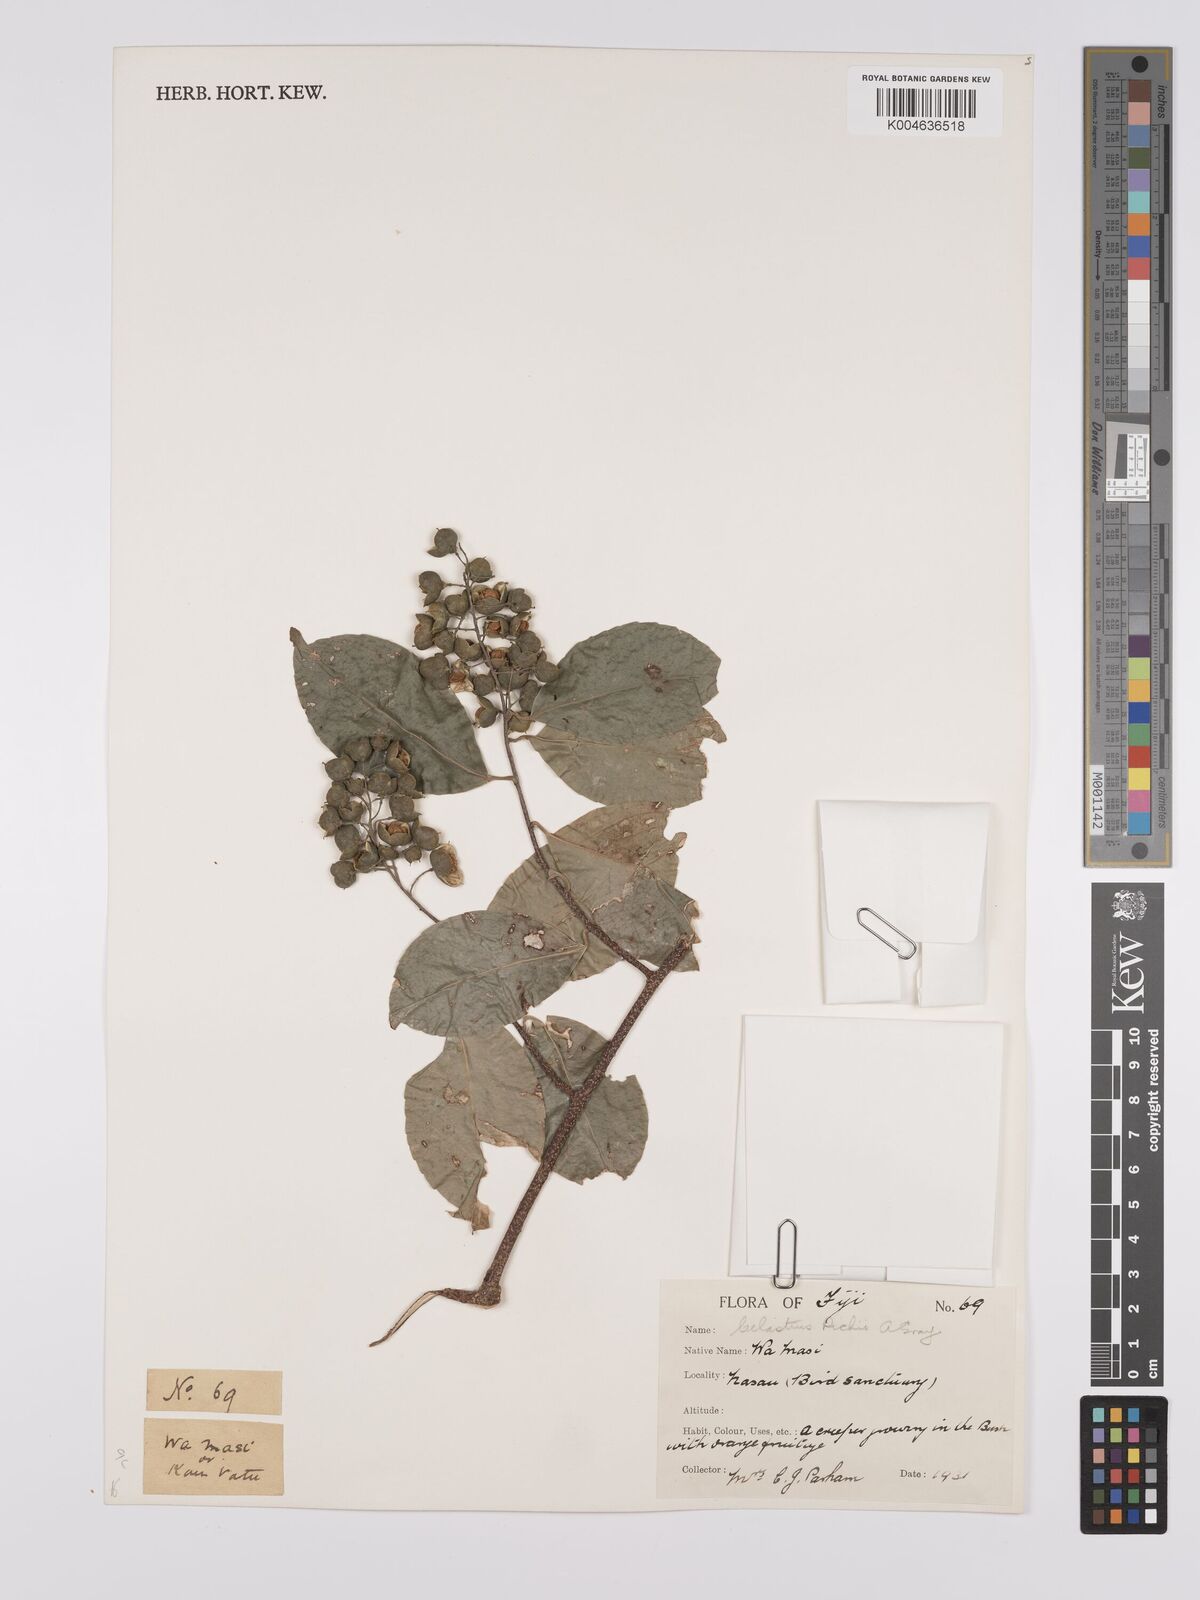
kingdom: Plantae
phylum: Tracheophyta
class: Magnoliopsida
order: Celastrales
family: Celastraceae
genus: Celastrus
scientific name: Celastrus richii
